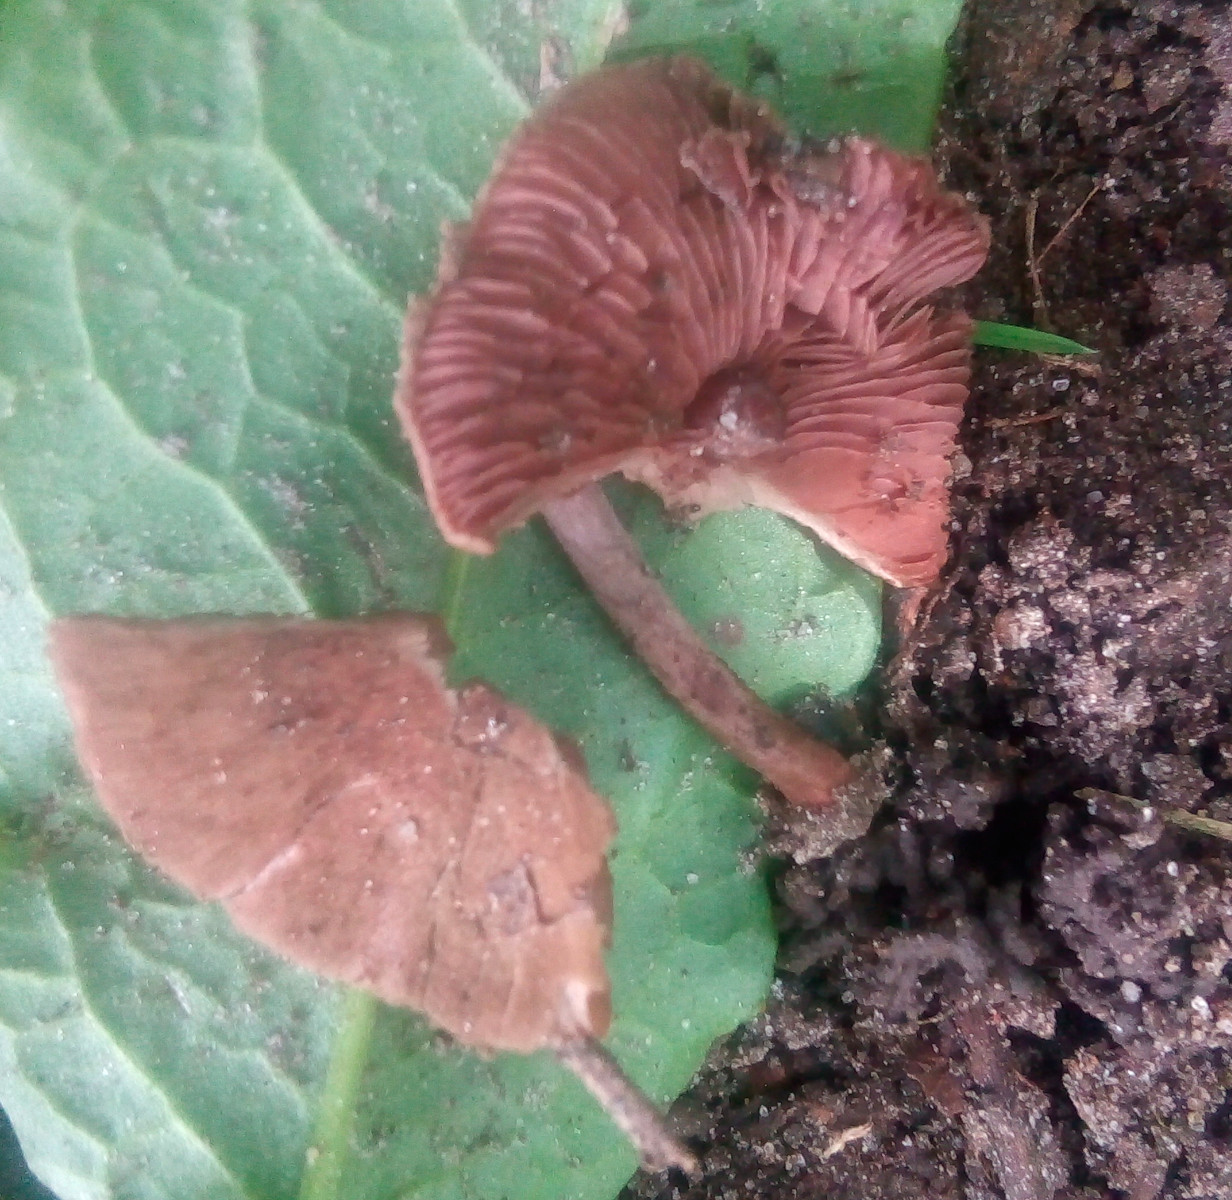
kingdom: Fungi
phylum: Basidiomycota
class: Agaricomycetes
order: Agaricales
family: Agaricaceae
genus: Melanophyllum
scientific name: Melanophyllum haematospermum
